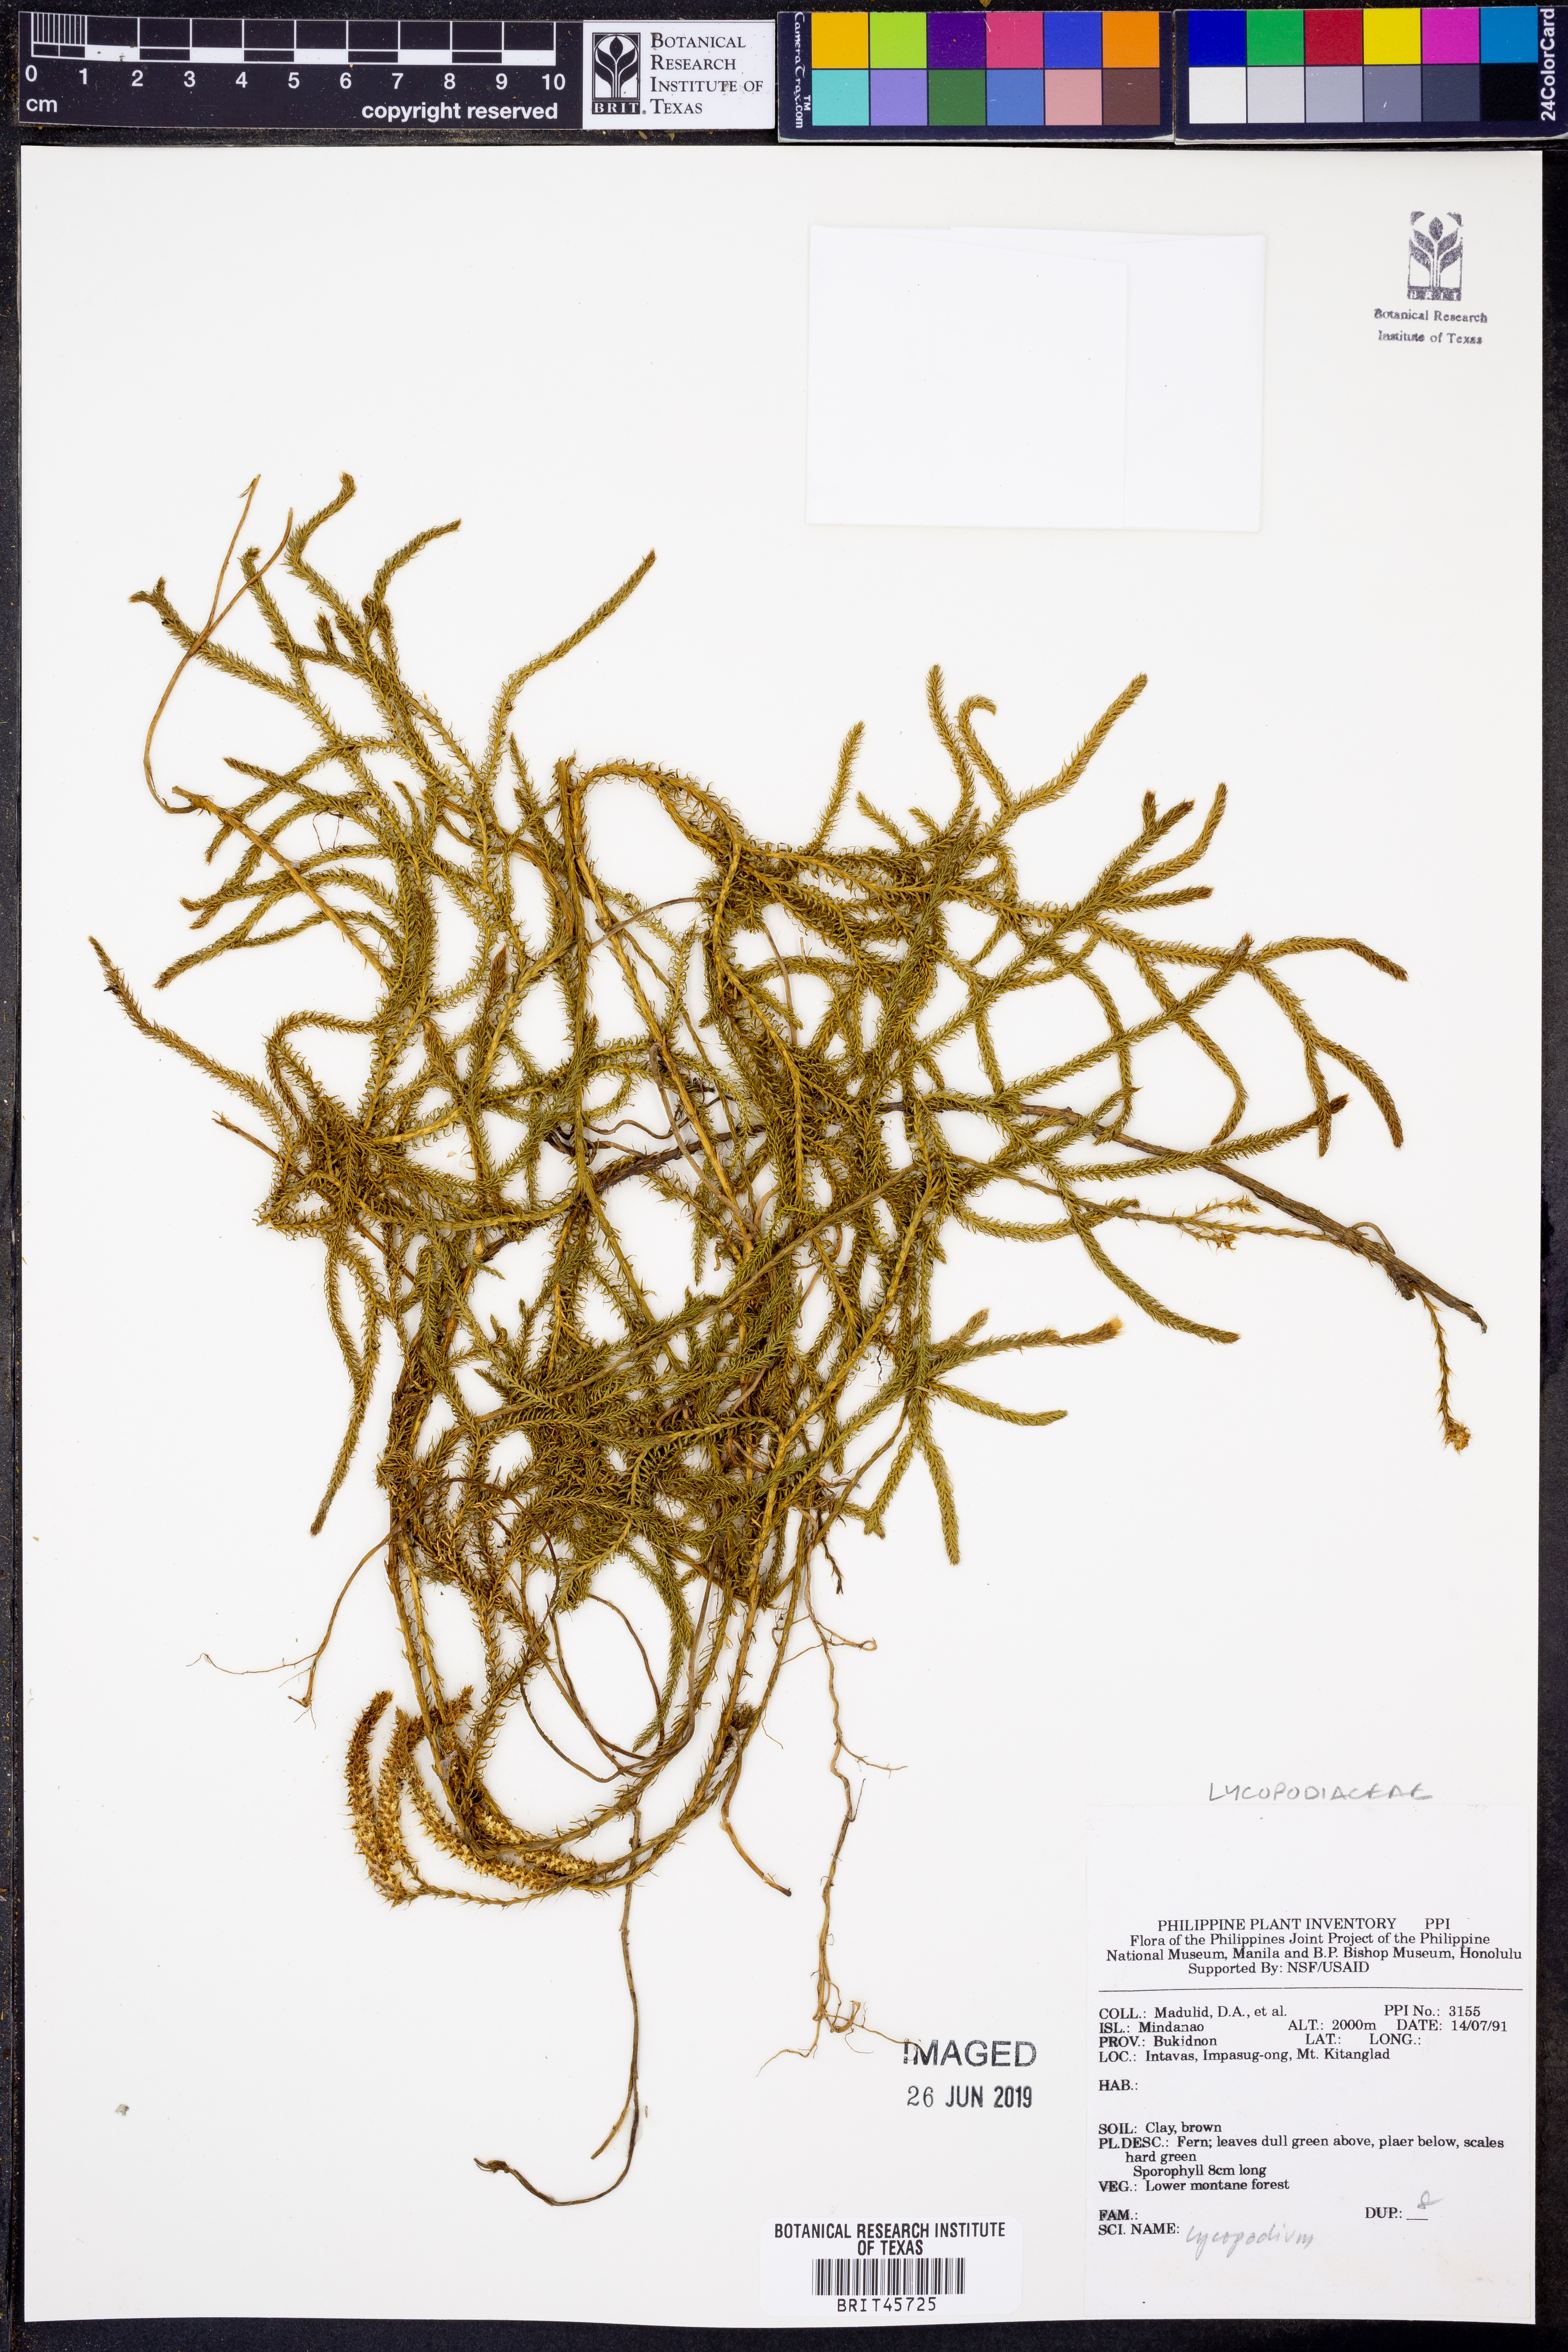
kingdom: Plantae
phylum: Tracheophyta
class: Lycopodiopsida
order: Lycopodiales
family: Lycopodiaceae
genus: Lycopodium
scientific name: Lycopodium
